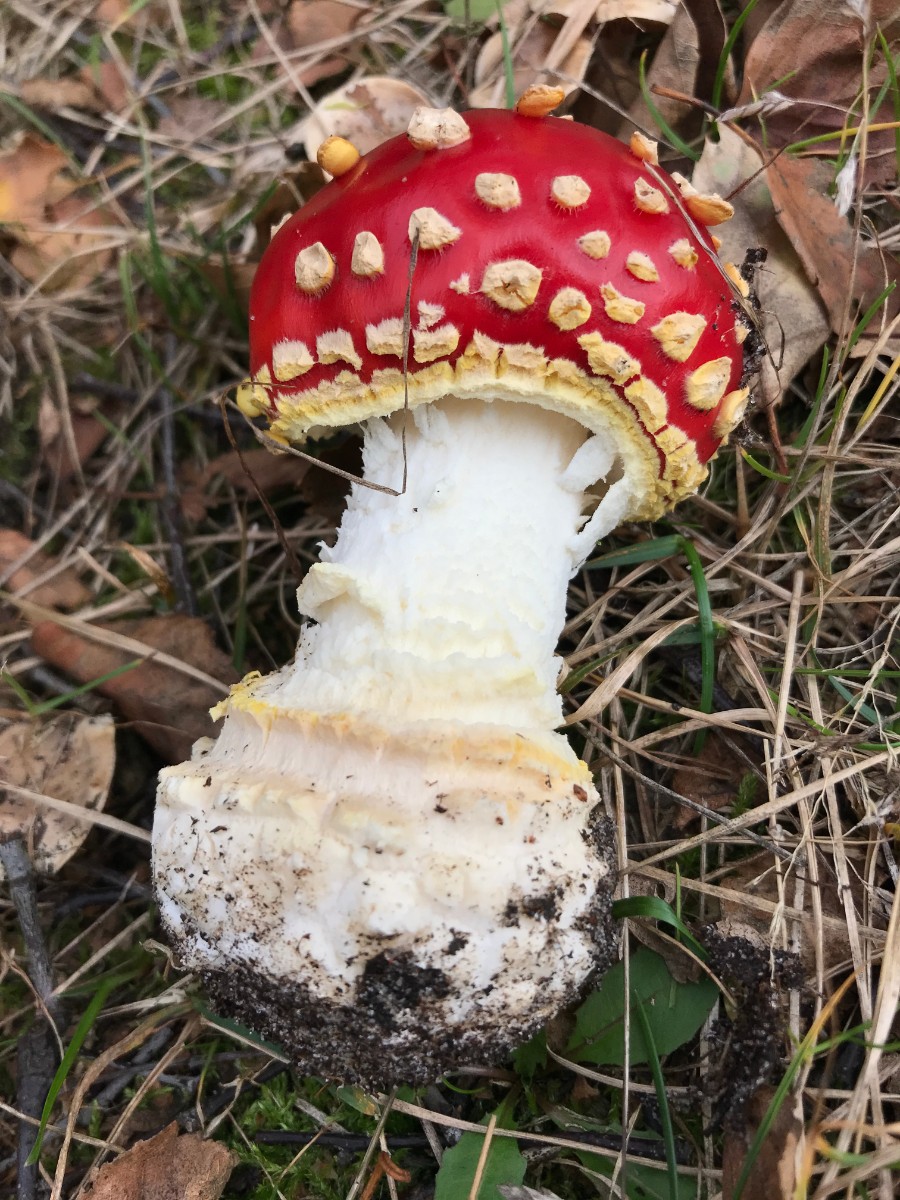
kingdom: Fungi
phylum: Basidiomycota
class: Agaricomycetes
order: Agaricales
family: Amanitaceae
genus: Amanita
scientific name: Amanita muscaria
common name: rød fluesvamp
